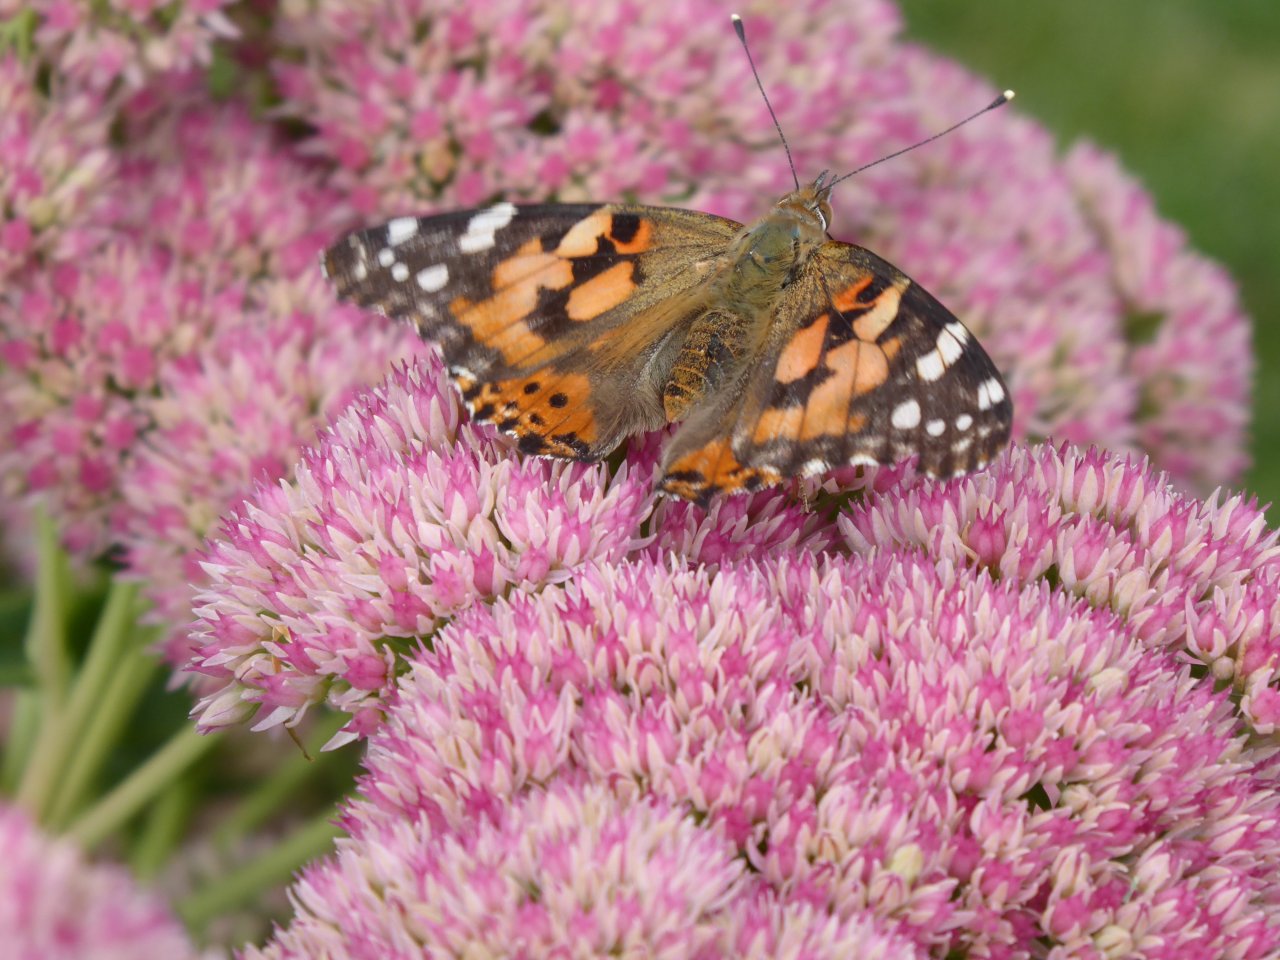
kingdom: Animalia
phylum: Arthropoda
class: Insecta
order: Lepidoptera
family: Nymphalidae
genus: Vanessa
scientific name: Vanessa cardui
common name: Painted Lady
